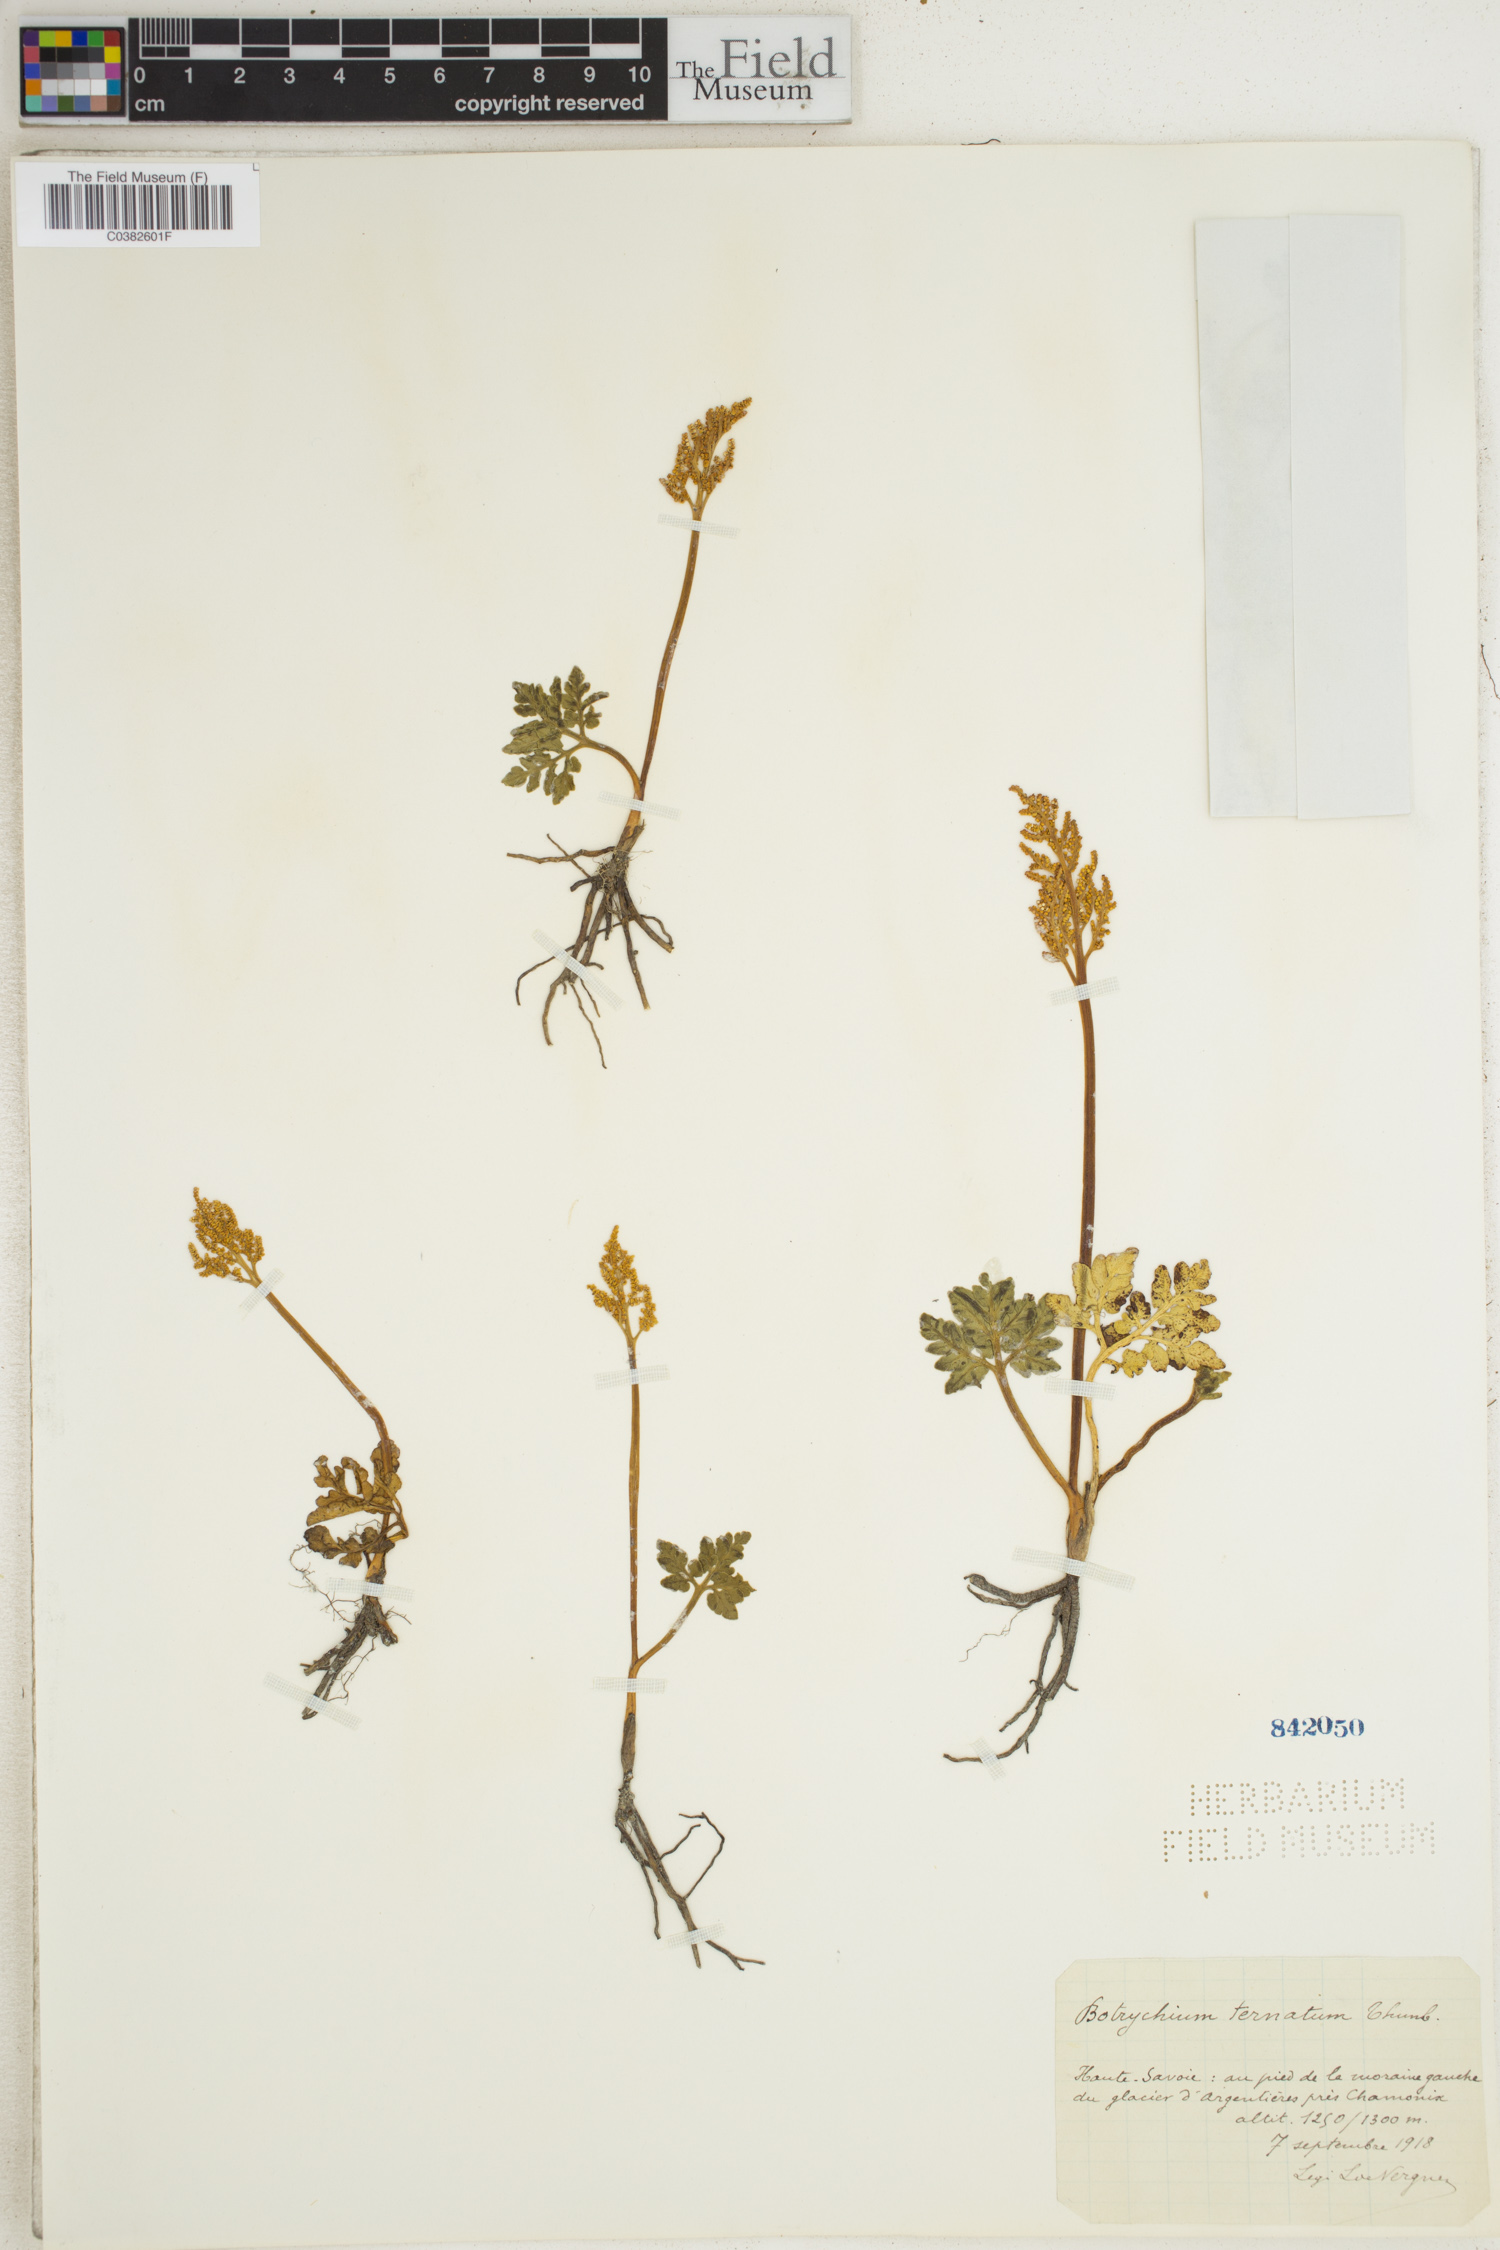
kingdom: Plantae
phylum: Tracheophyta
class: Polypodiopsida
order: Ophioglossales
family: Ophioglossaceae
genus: Sceptridium
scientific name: Sceptridium ternatum
